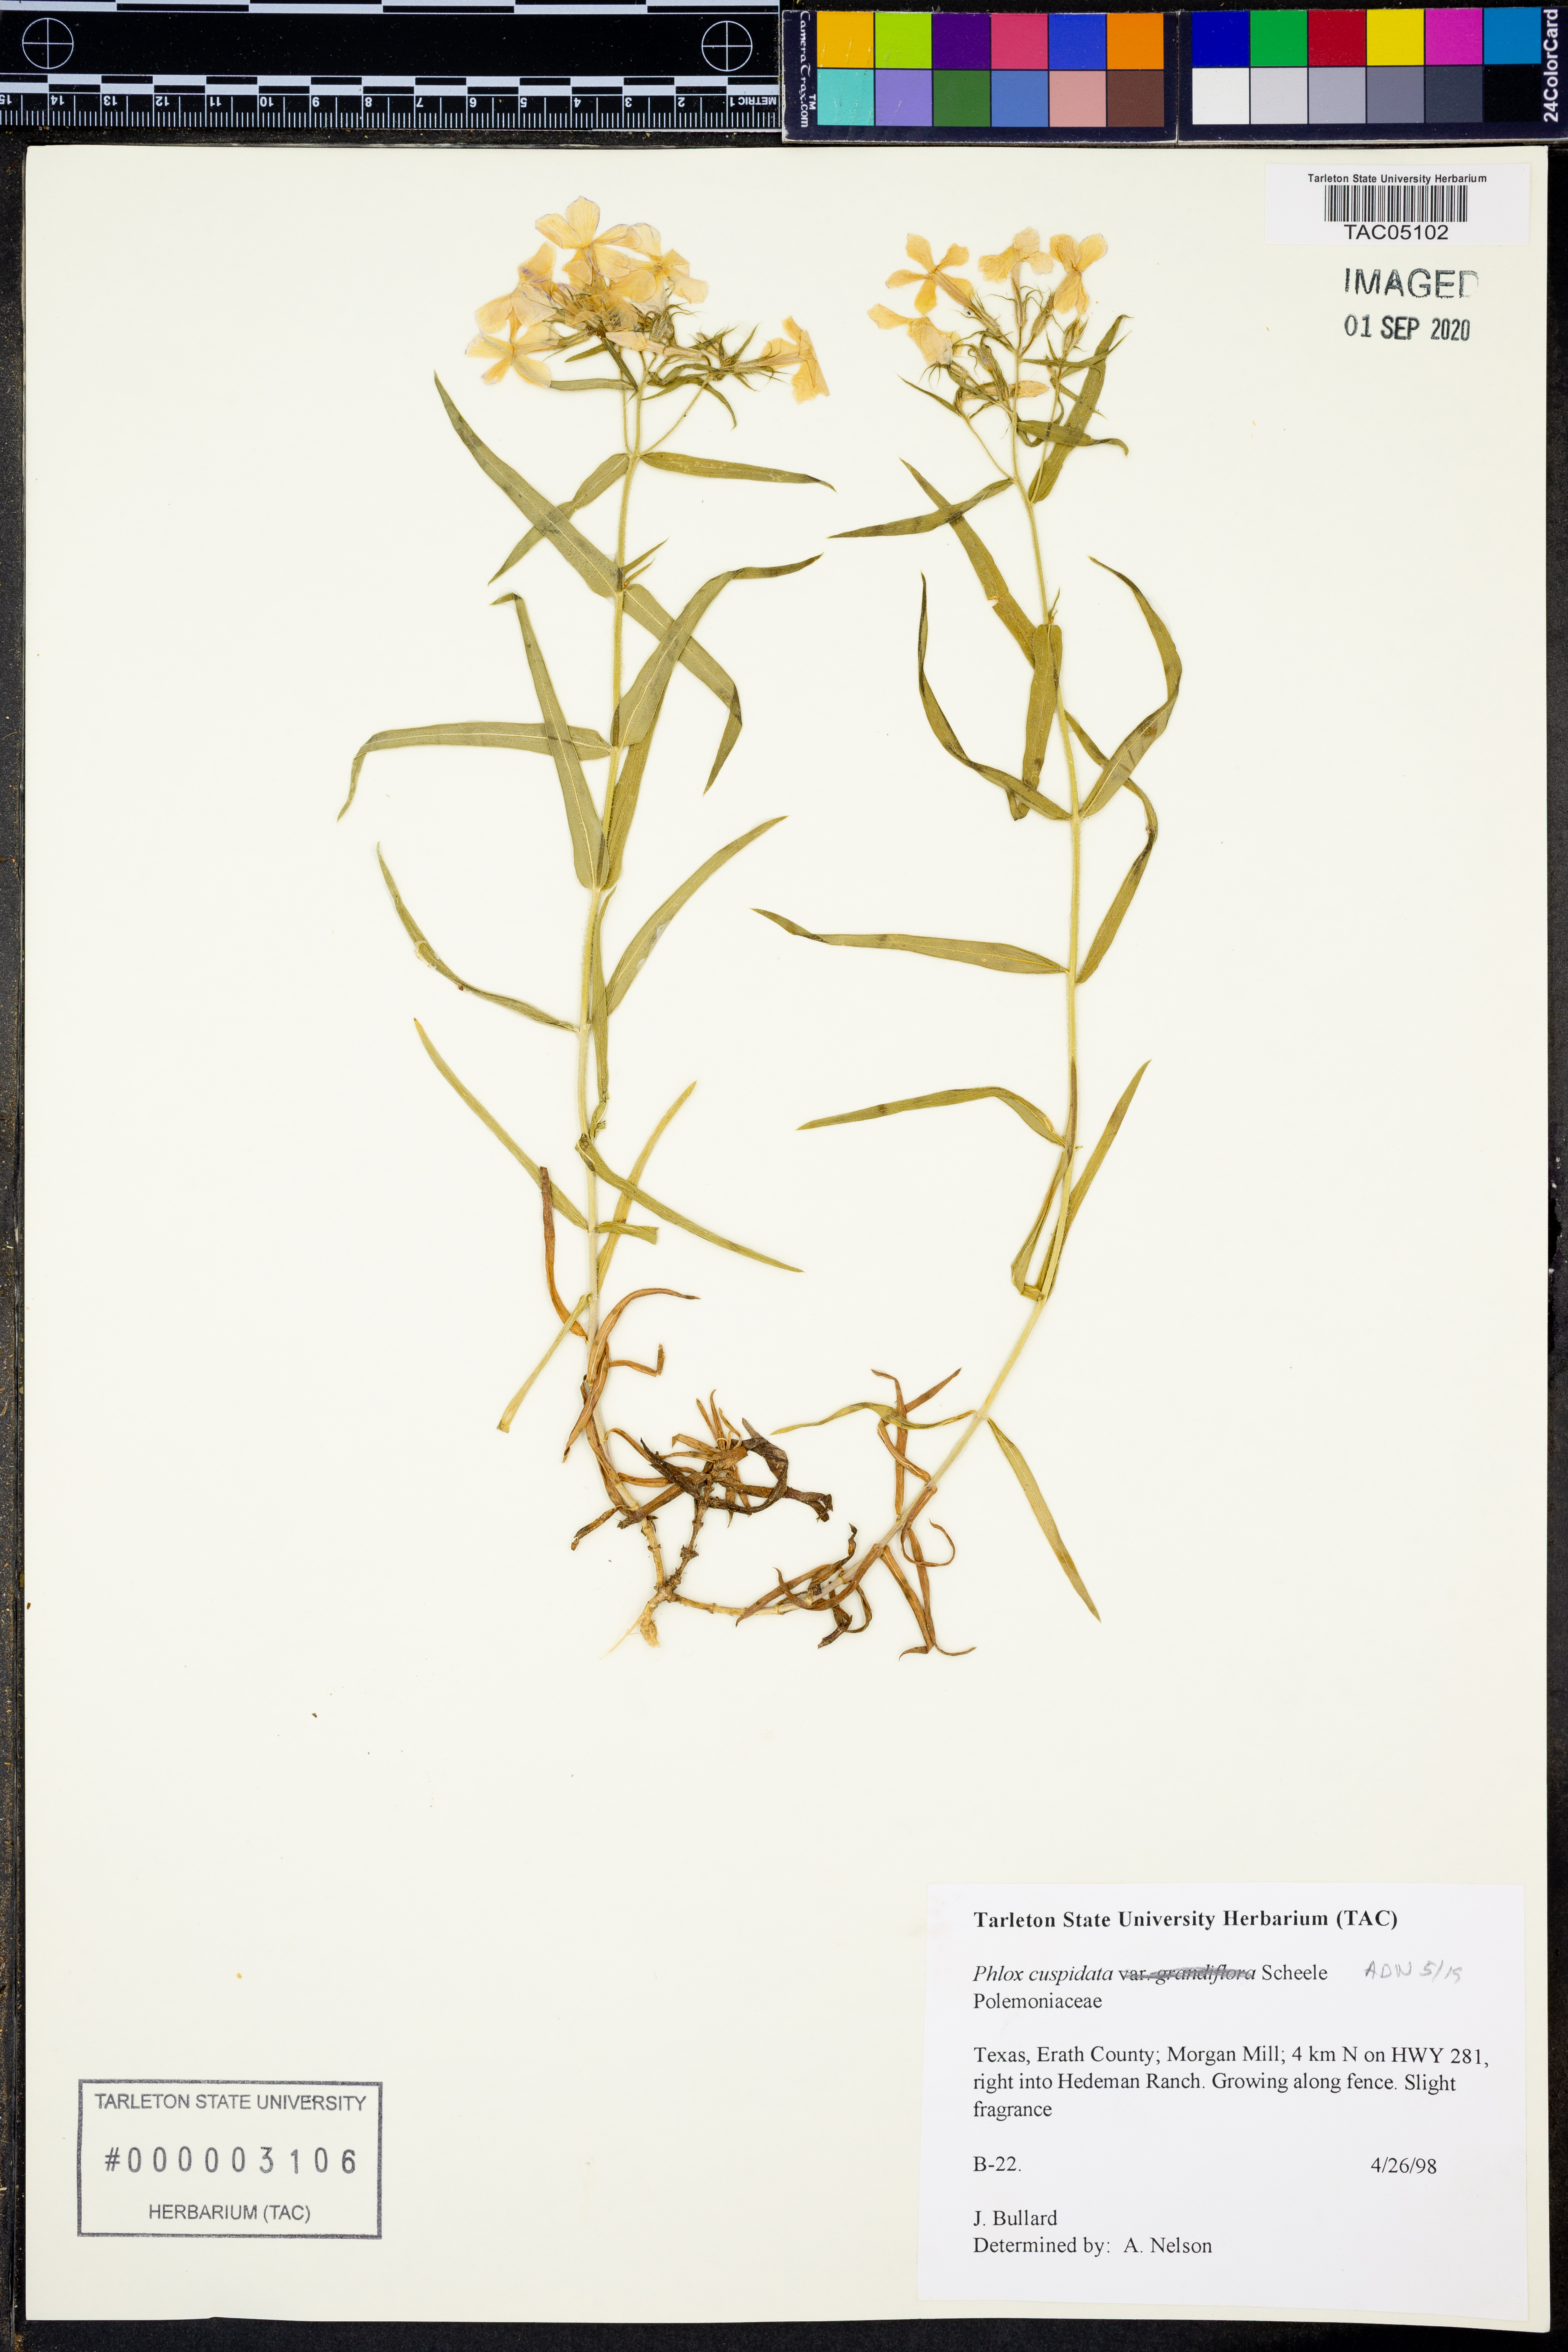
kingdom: Plantae
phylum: Tracheophyta
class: Magnoliopsida
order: Ericales
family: Polemoniaceae
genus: Phlox
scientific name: Phlox cuspidata
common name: Pointed phlox
